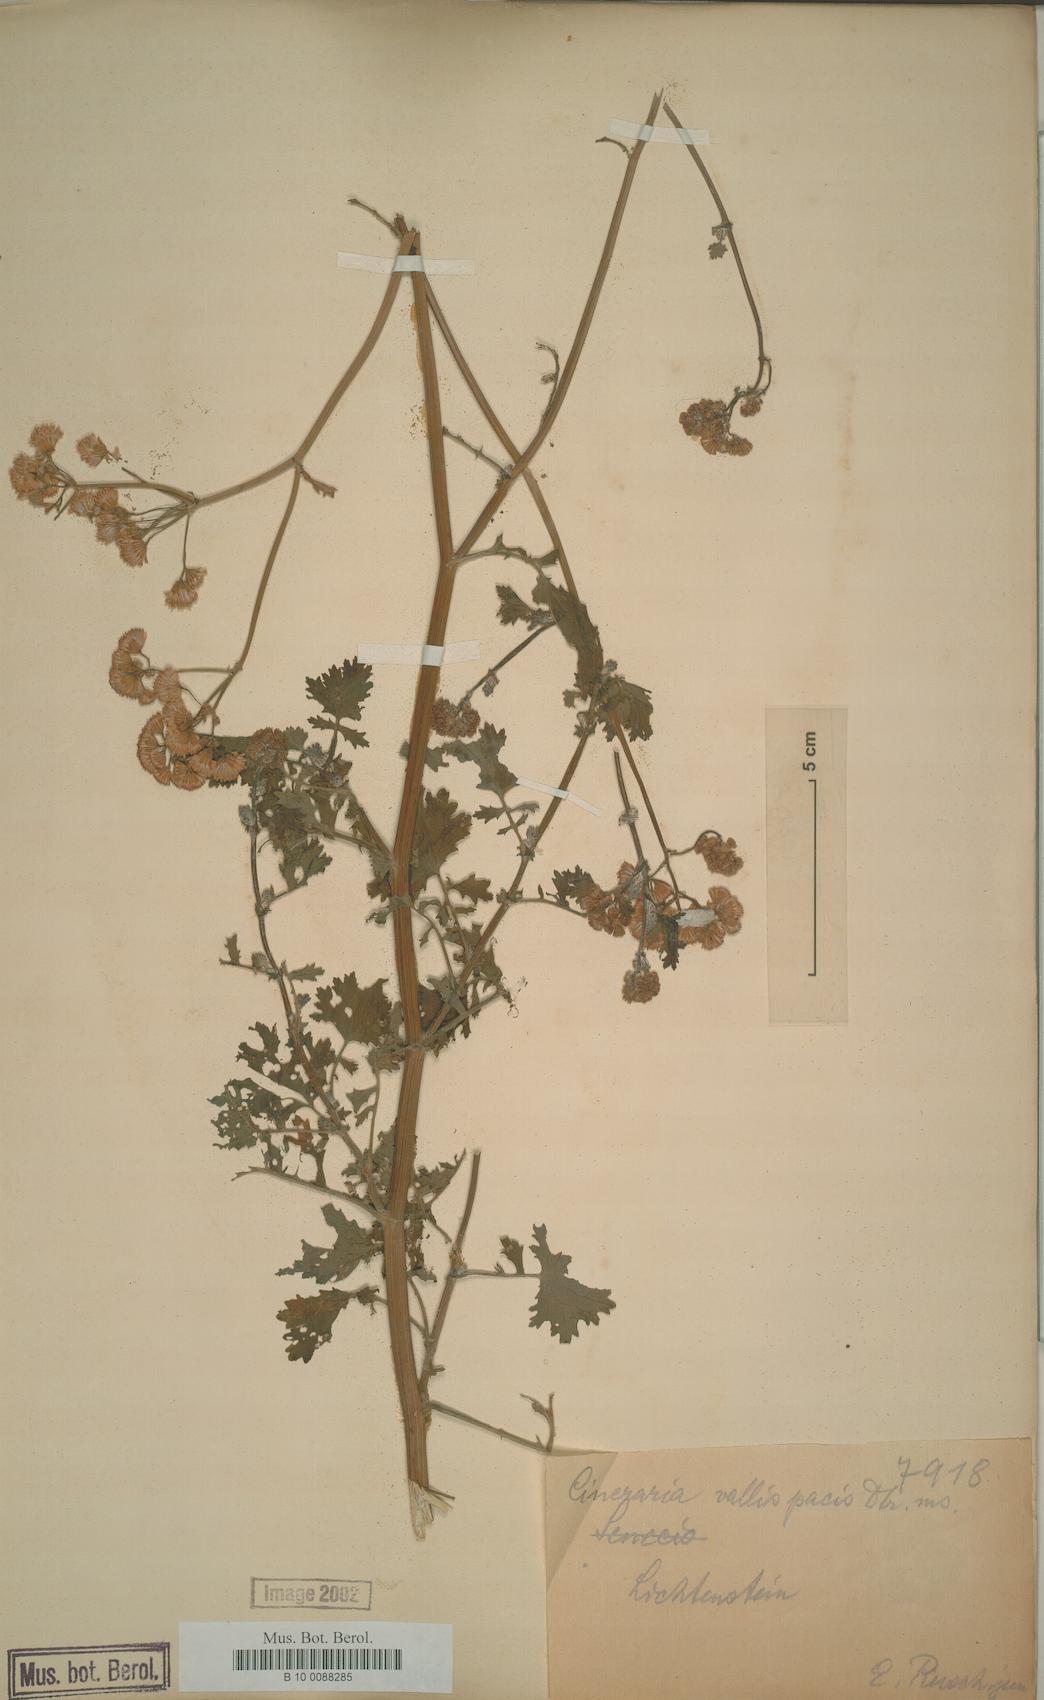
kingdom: Plantae
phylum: Tracheophyta
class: Magnoliopsida
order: Asterales
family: Asteraceae
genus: Cineraria
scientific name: Cineraria vallis-pacis
